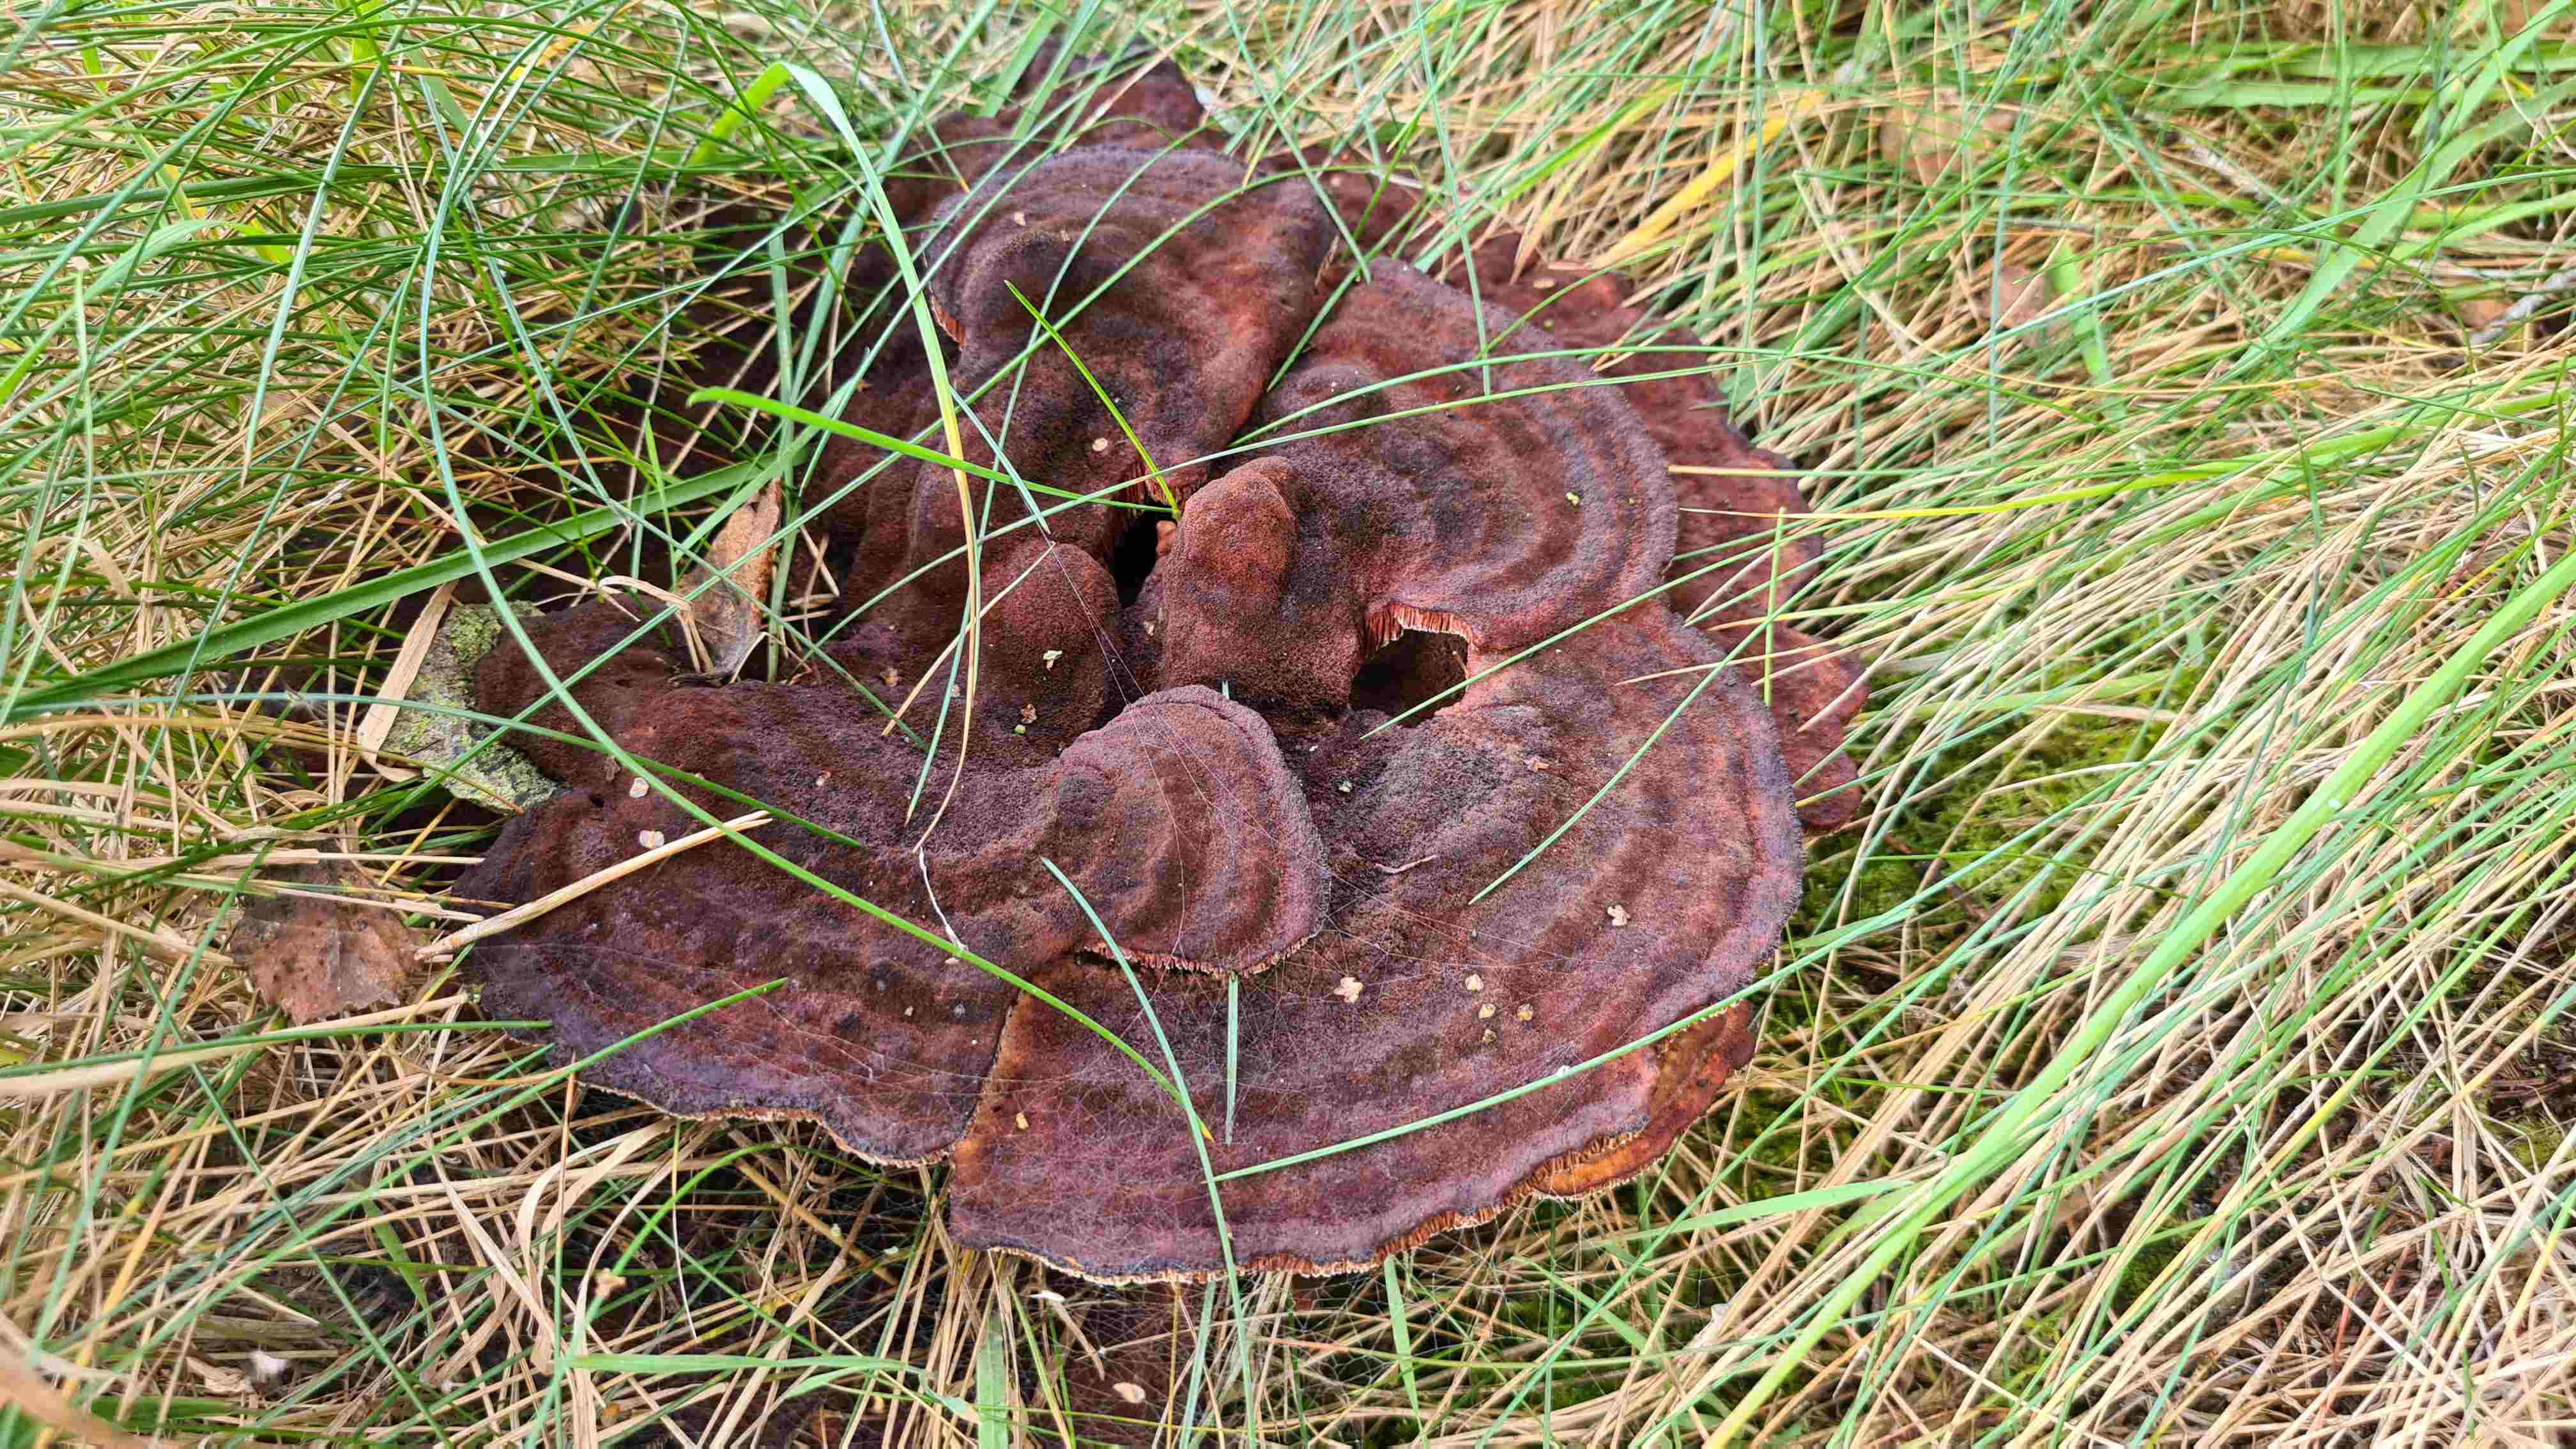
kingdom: Fungi
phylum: Basidiomycota
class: Agaricomycetes
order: Polyporales
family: Laetiporaceae
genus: Phaeolus
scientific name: Phaeolus schweinitzii
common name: brunporesvamp
